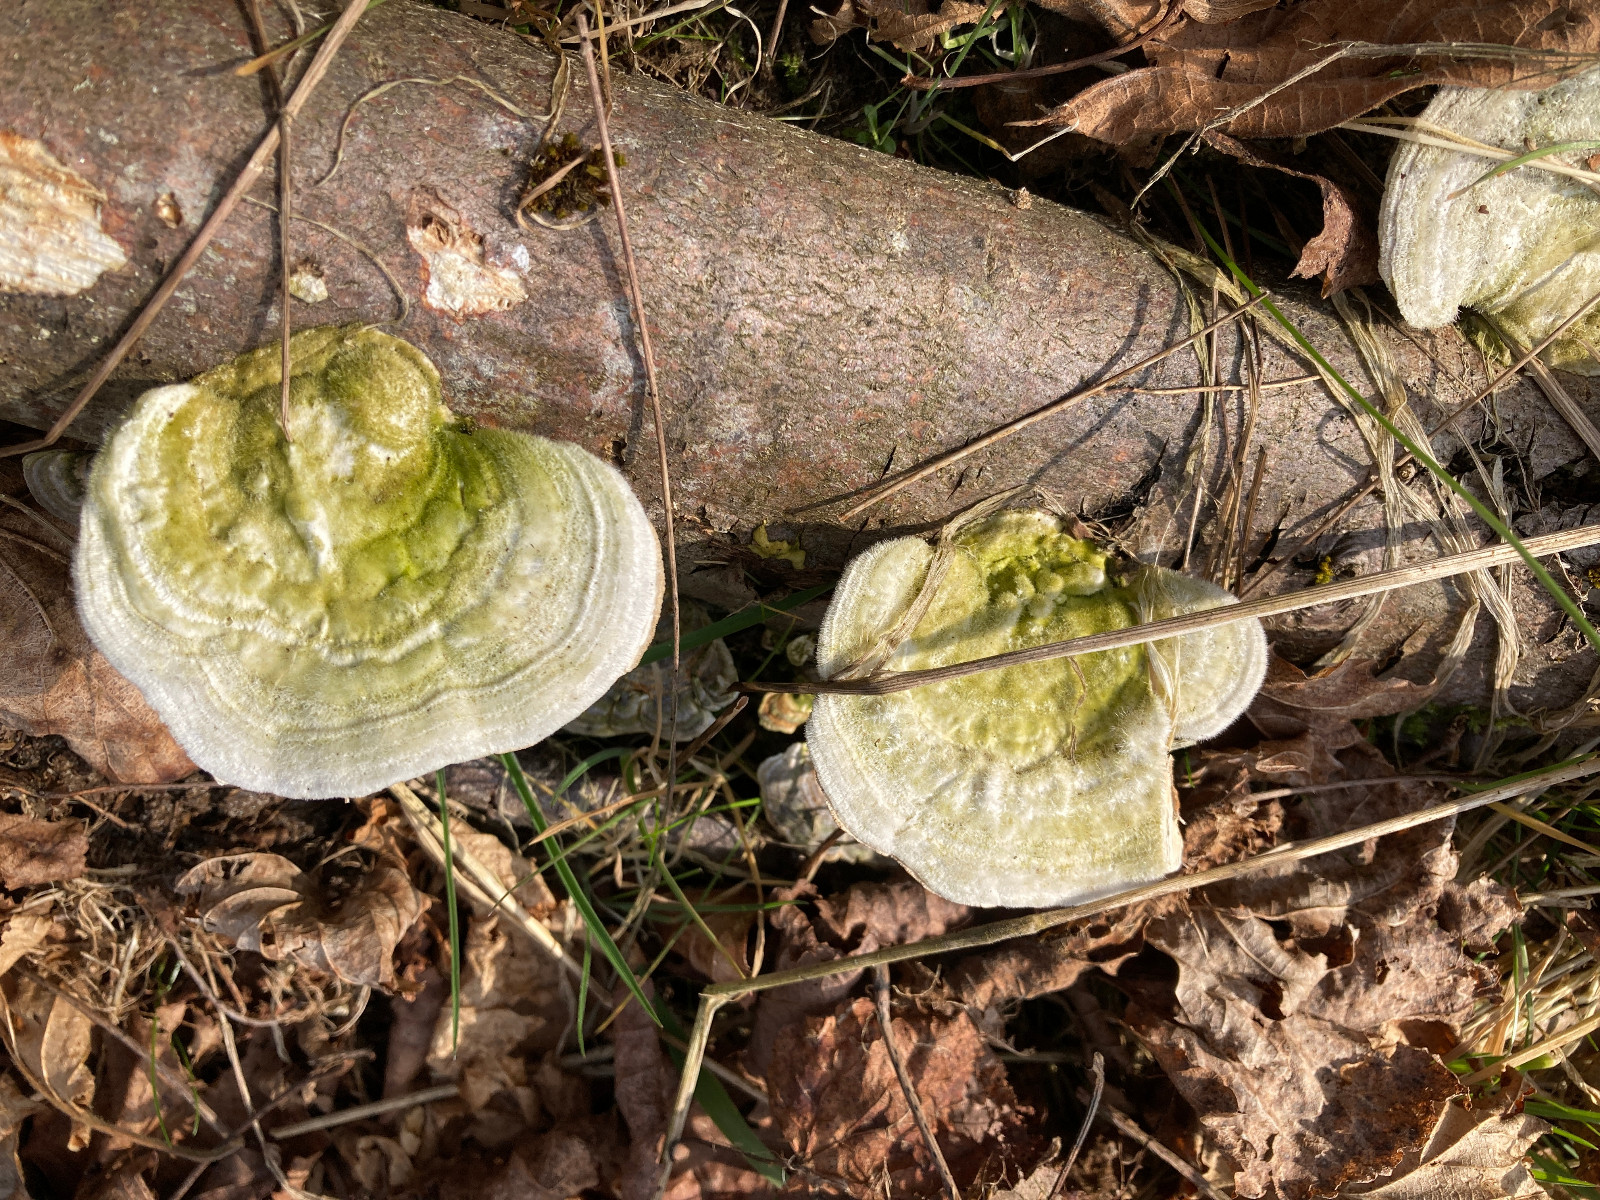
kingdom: Fungi
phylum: Basidiomycota
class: Agaricomycetes
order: Polyporales
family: Polyporaceae
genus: Trametes
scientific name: Trametes hirsuta
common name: håret læderporesvamp
